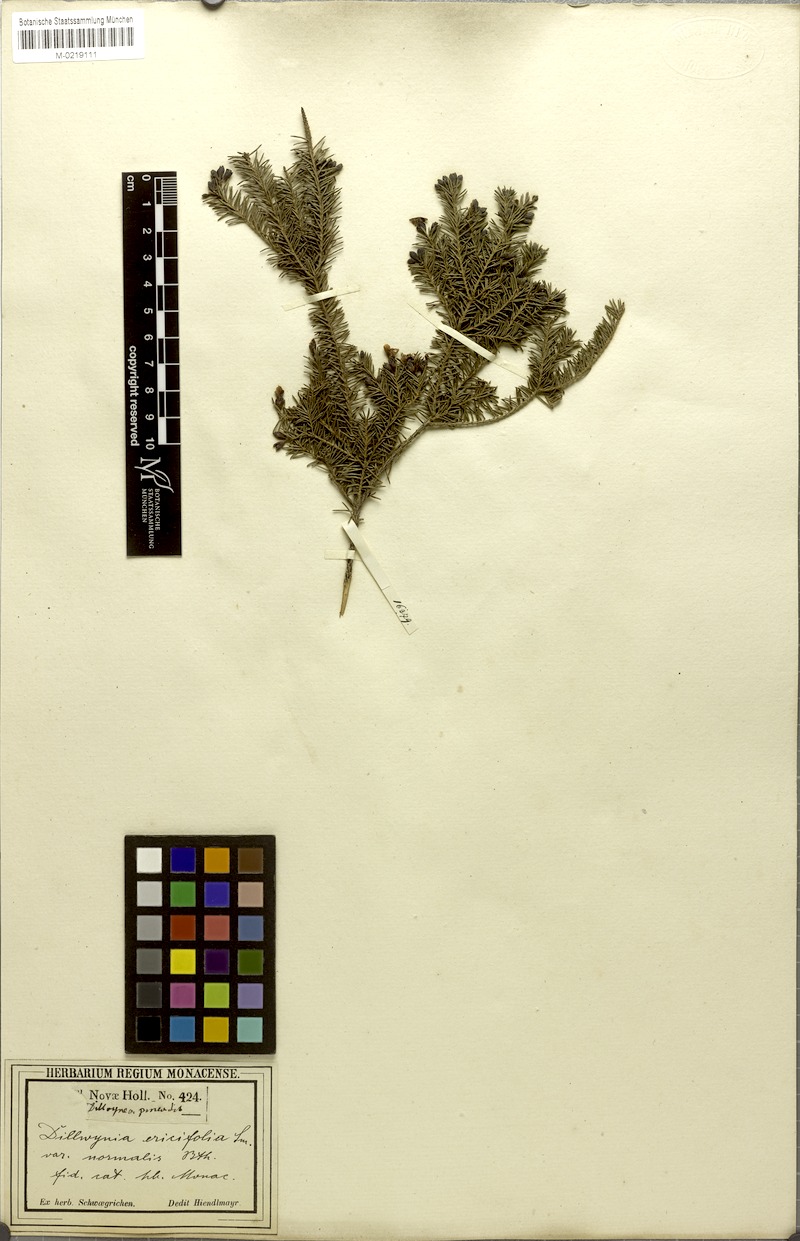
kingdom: Plantae
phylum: Tracheophyta
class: Magnoliopsida
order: Fabales
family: Fabaceae
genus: Dillwynia
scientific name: Dillwynia retorta
